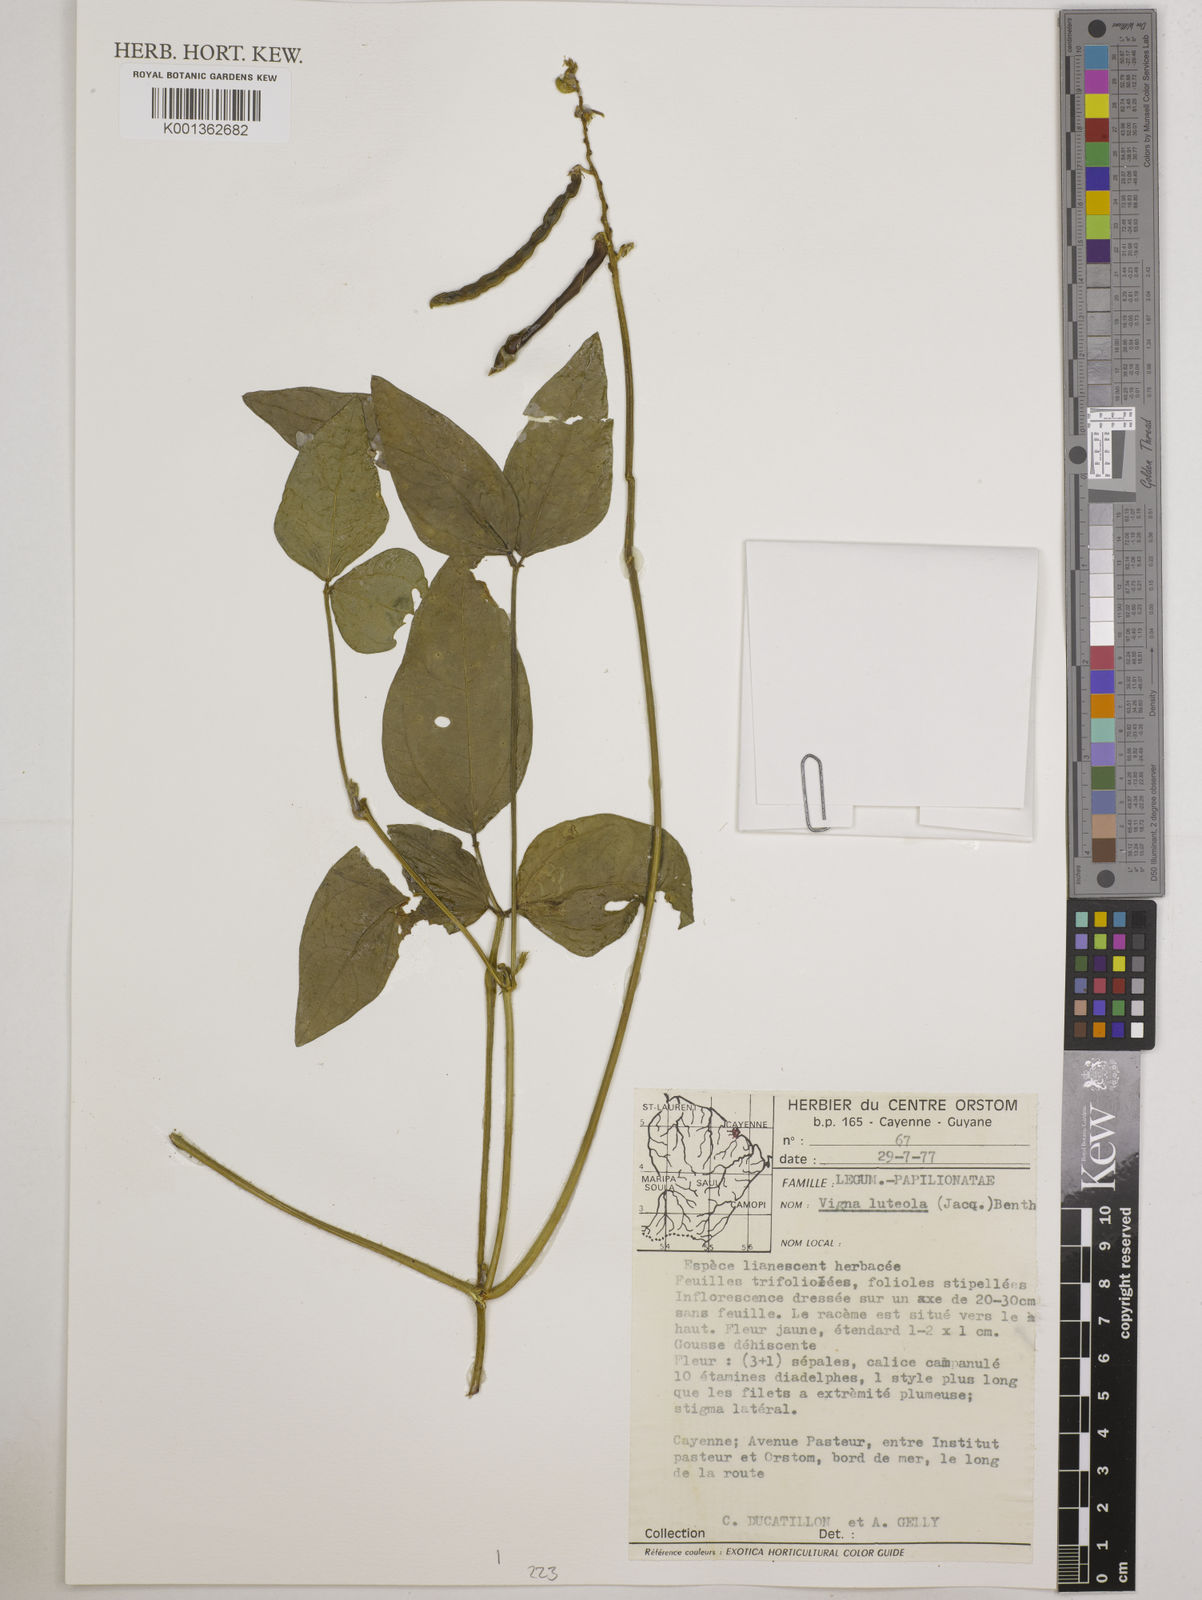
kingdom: Plantae
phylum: Tracheophyta
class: Magnoliopsida
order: Fabales
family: Fabaceae
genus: Vigna
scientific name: Vigna luteola
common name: Hairypod cowpea
